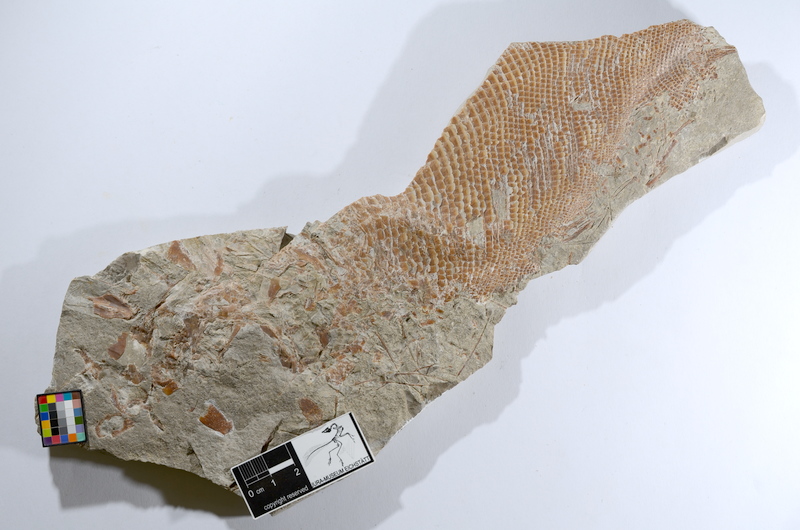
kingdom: Animalia
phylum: Chordata
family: Dapediidae
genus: Heterostrophus
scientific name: Heterostrophus latus
